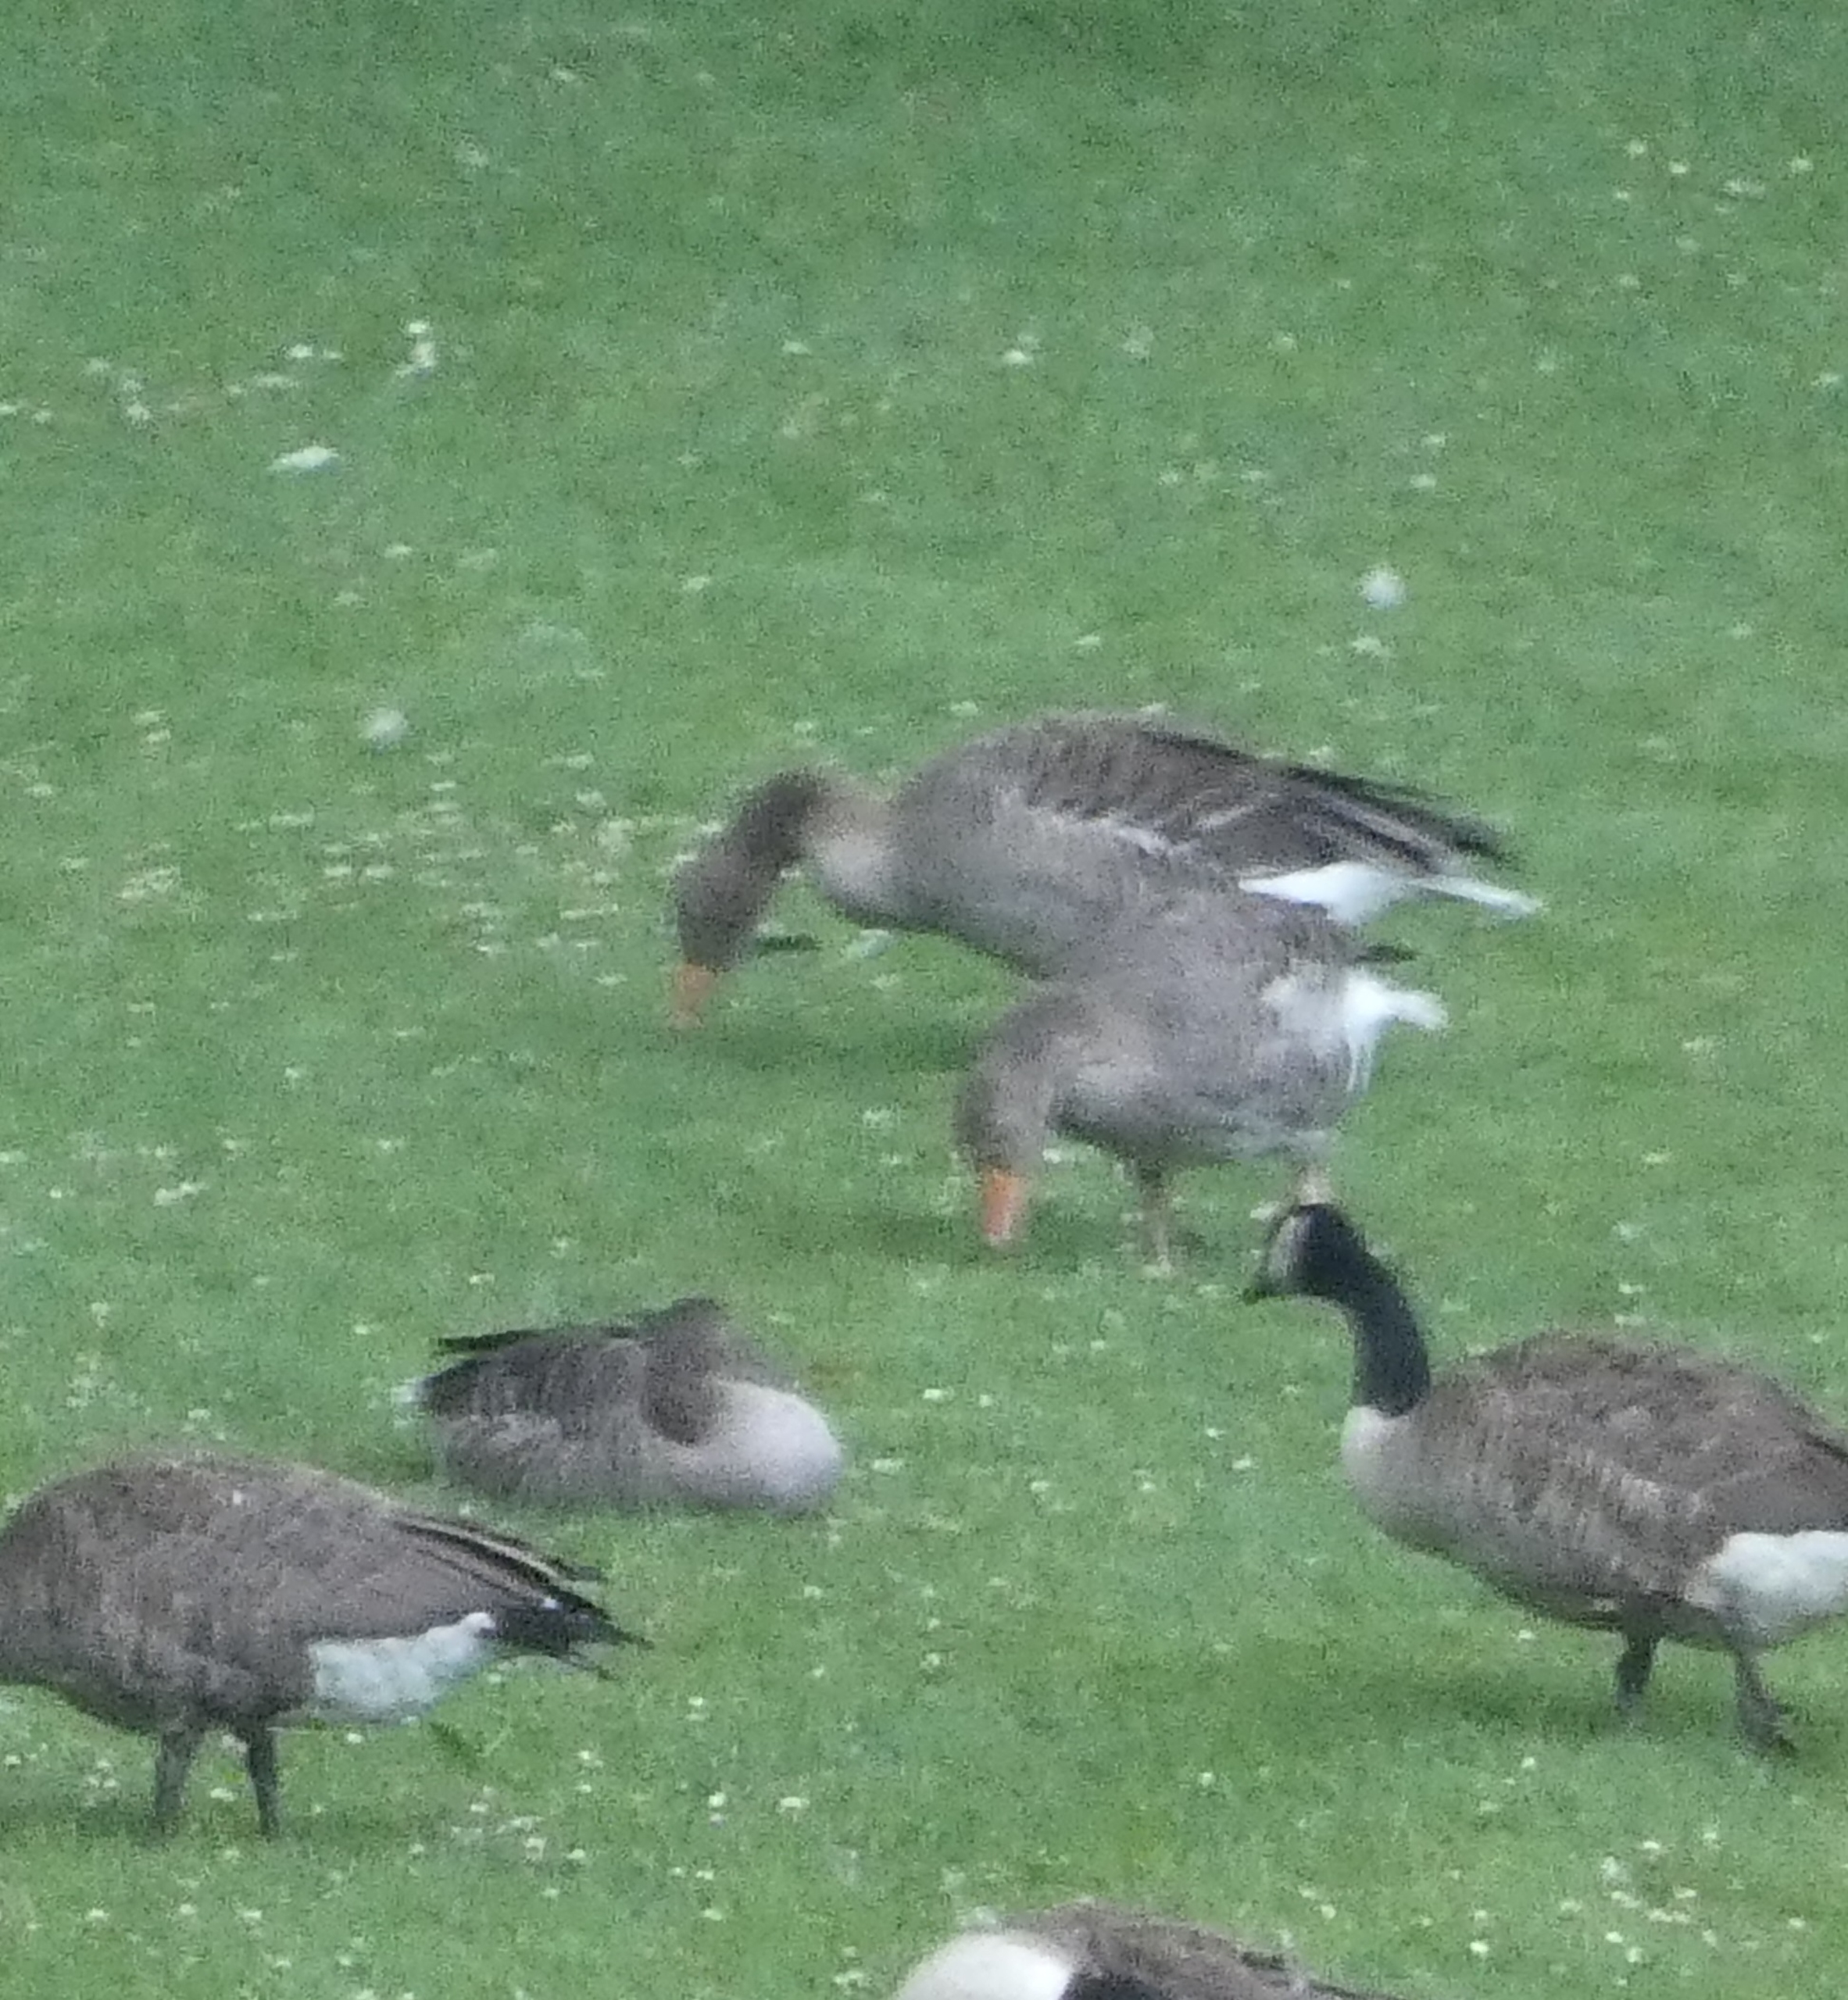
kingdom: Animalia
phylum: Chordata
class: Aves
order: Anseriformes
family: Anatidae
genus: Anser
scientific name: Anser anser
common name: Grågås
